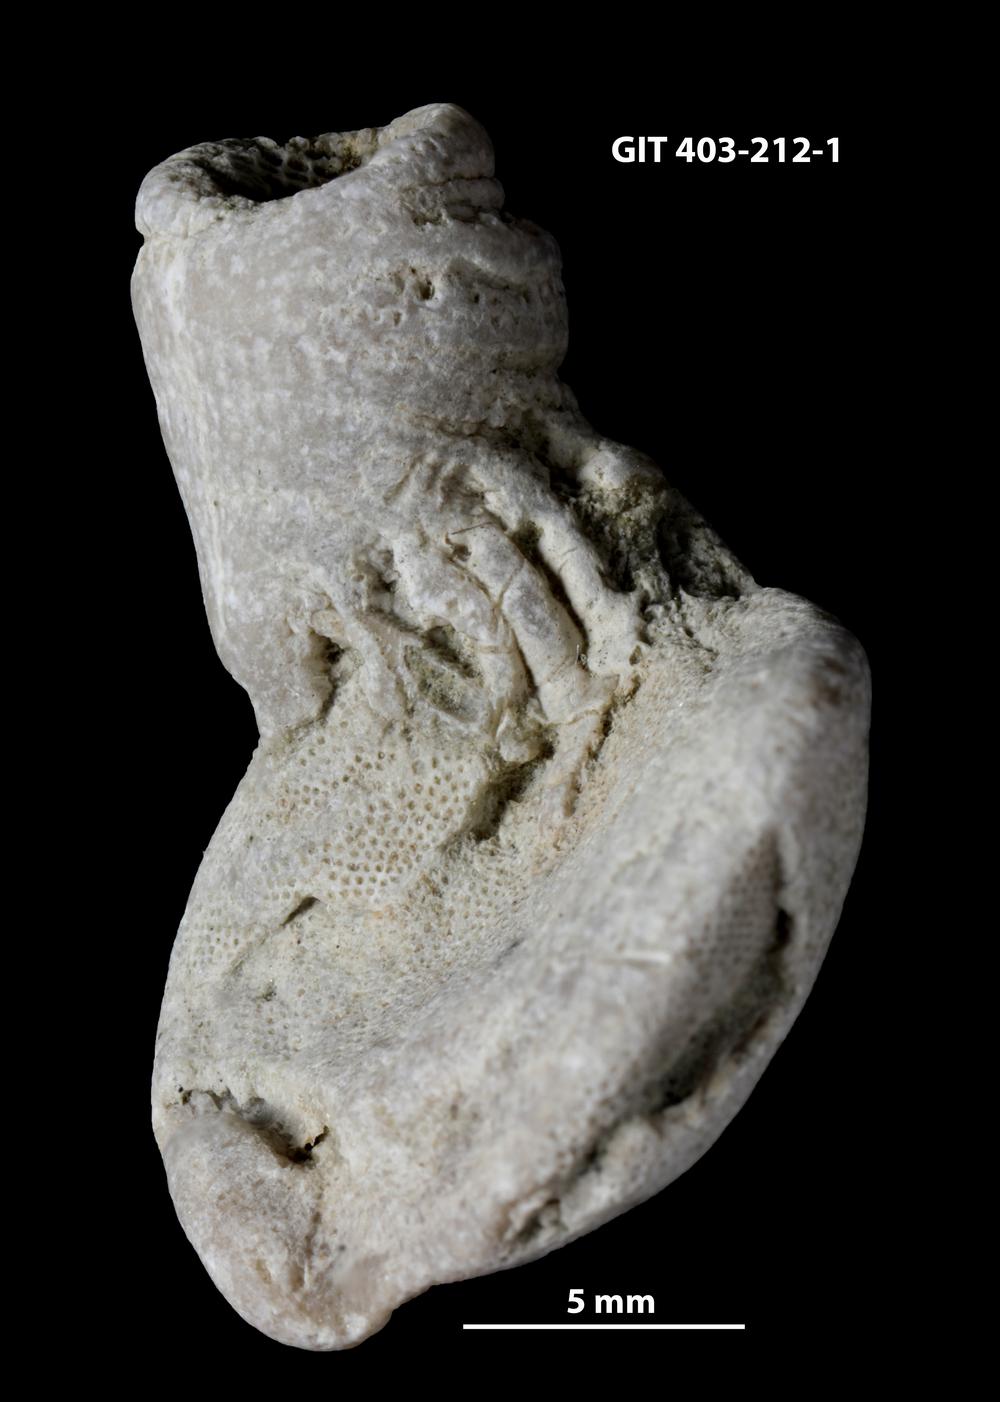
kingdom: Animalia
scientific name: Animalia
